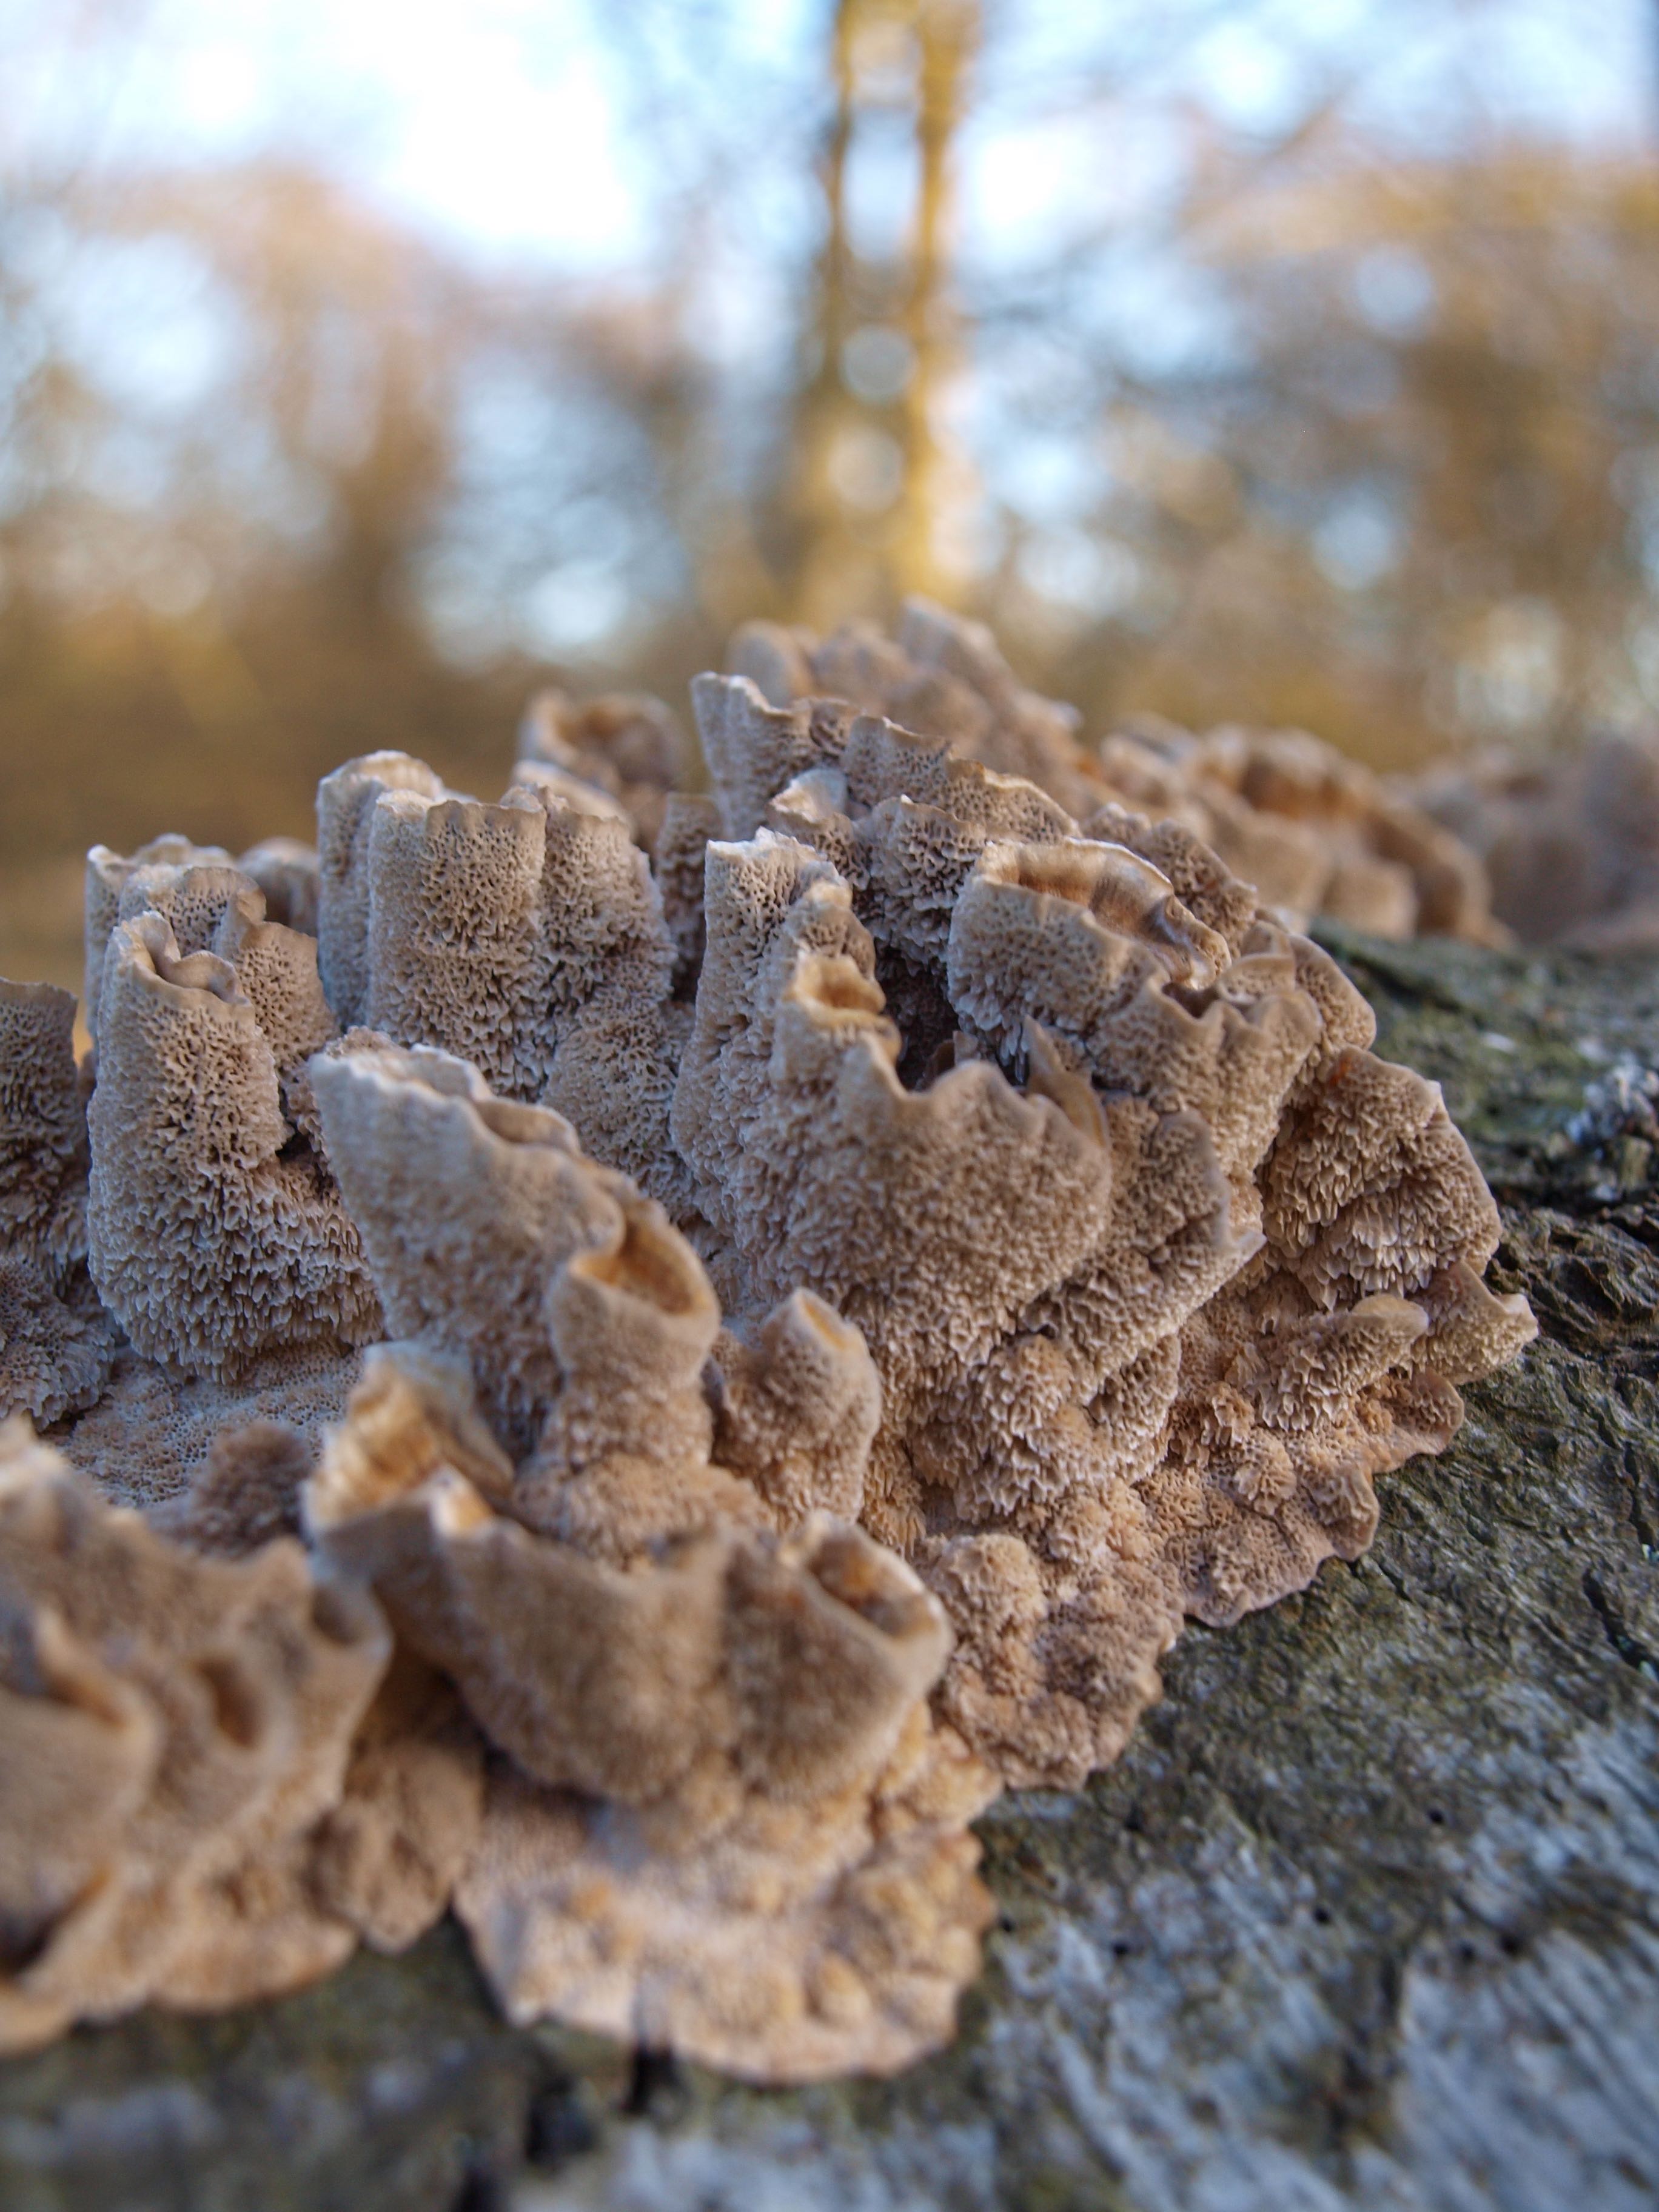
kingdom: Fungi
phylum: Basidiomycota
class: Agaricomycetes
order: Polyporales
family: Polyporaceae
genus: Trametes
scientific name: Trametes versicolor
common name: broget læderporesvamp
